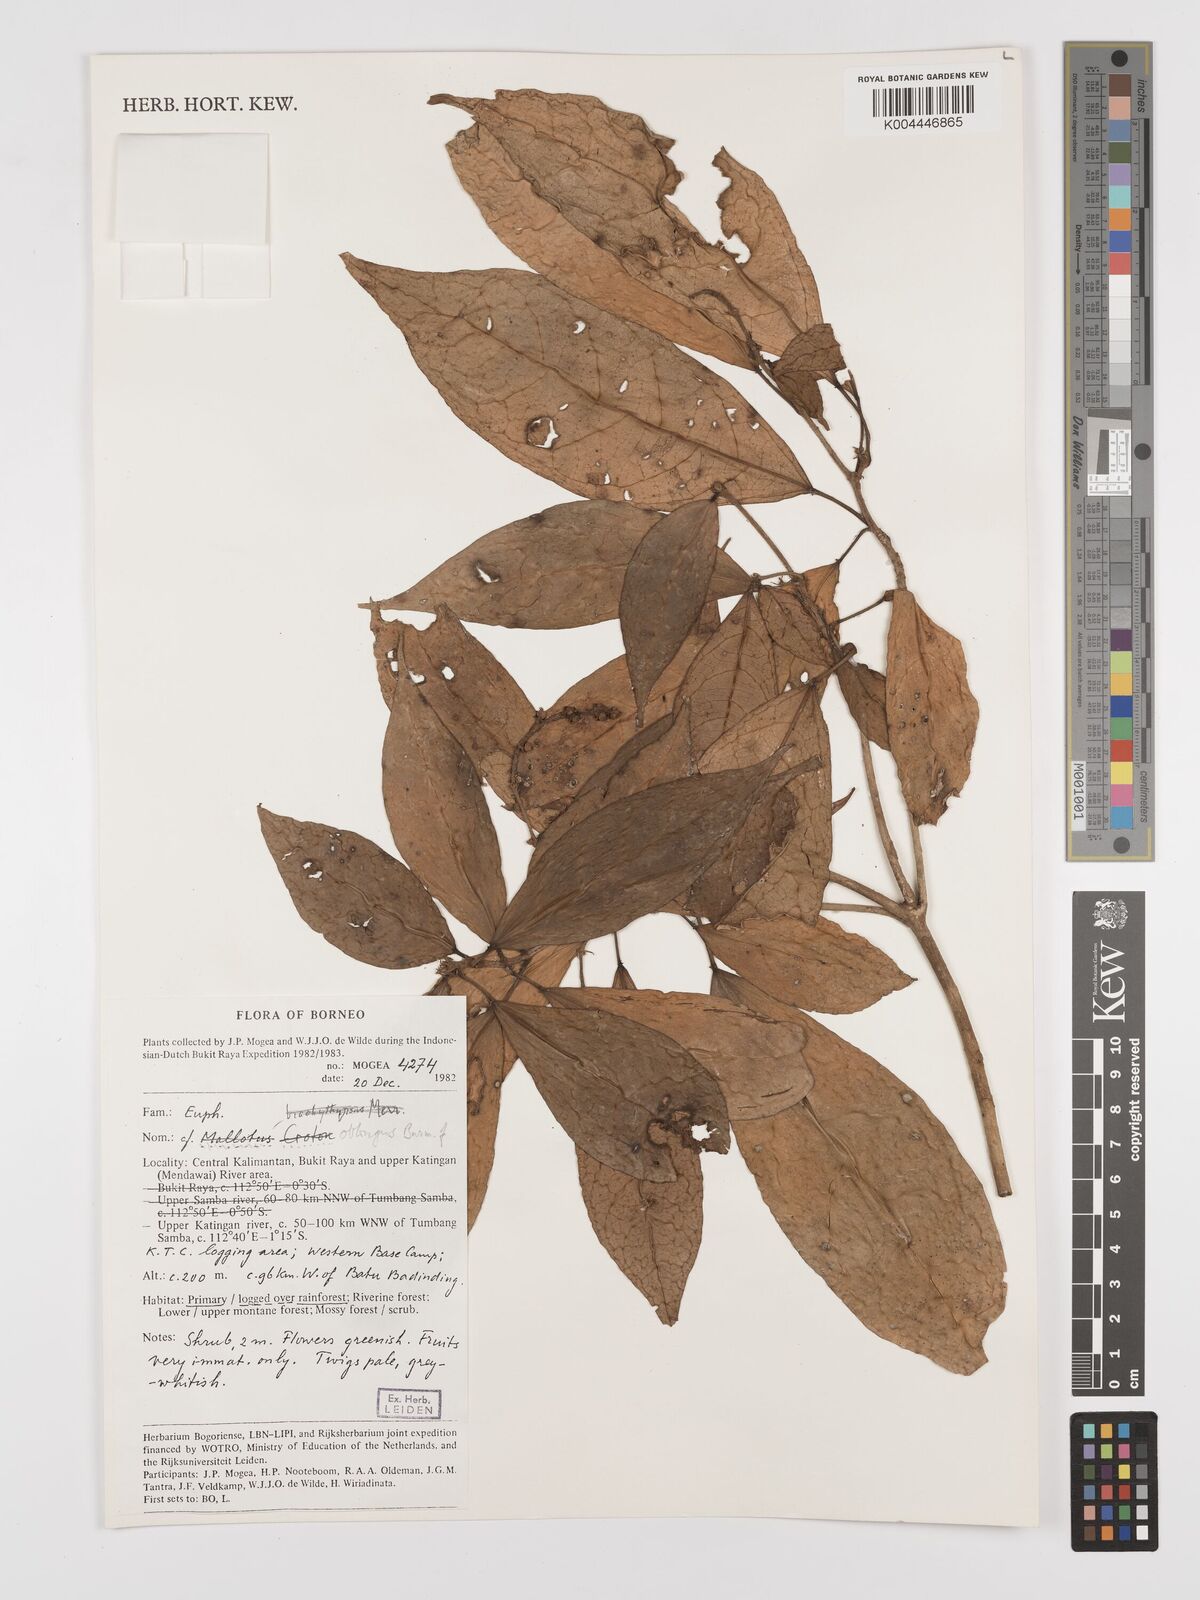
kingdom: Plantae
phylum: Tracheophyta
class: Magnoliopsida
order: Malpighiales
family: Euphorbiaceae
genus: Croton
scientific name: Croton
